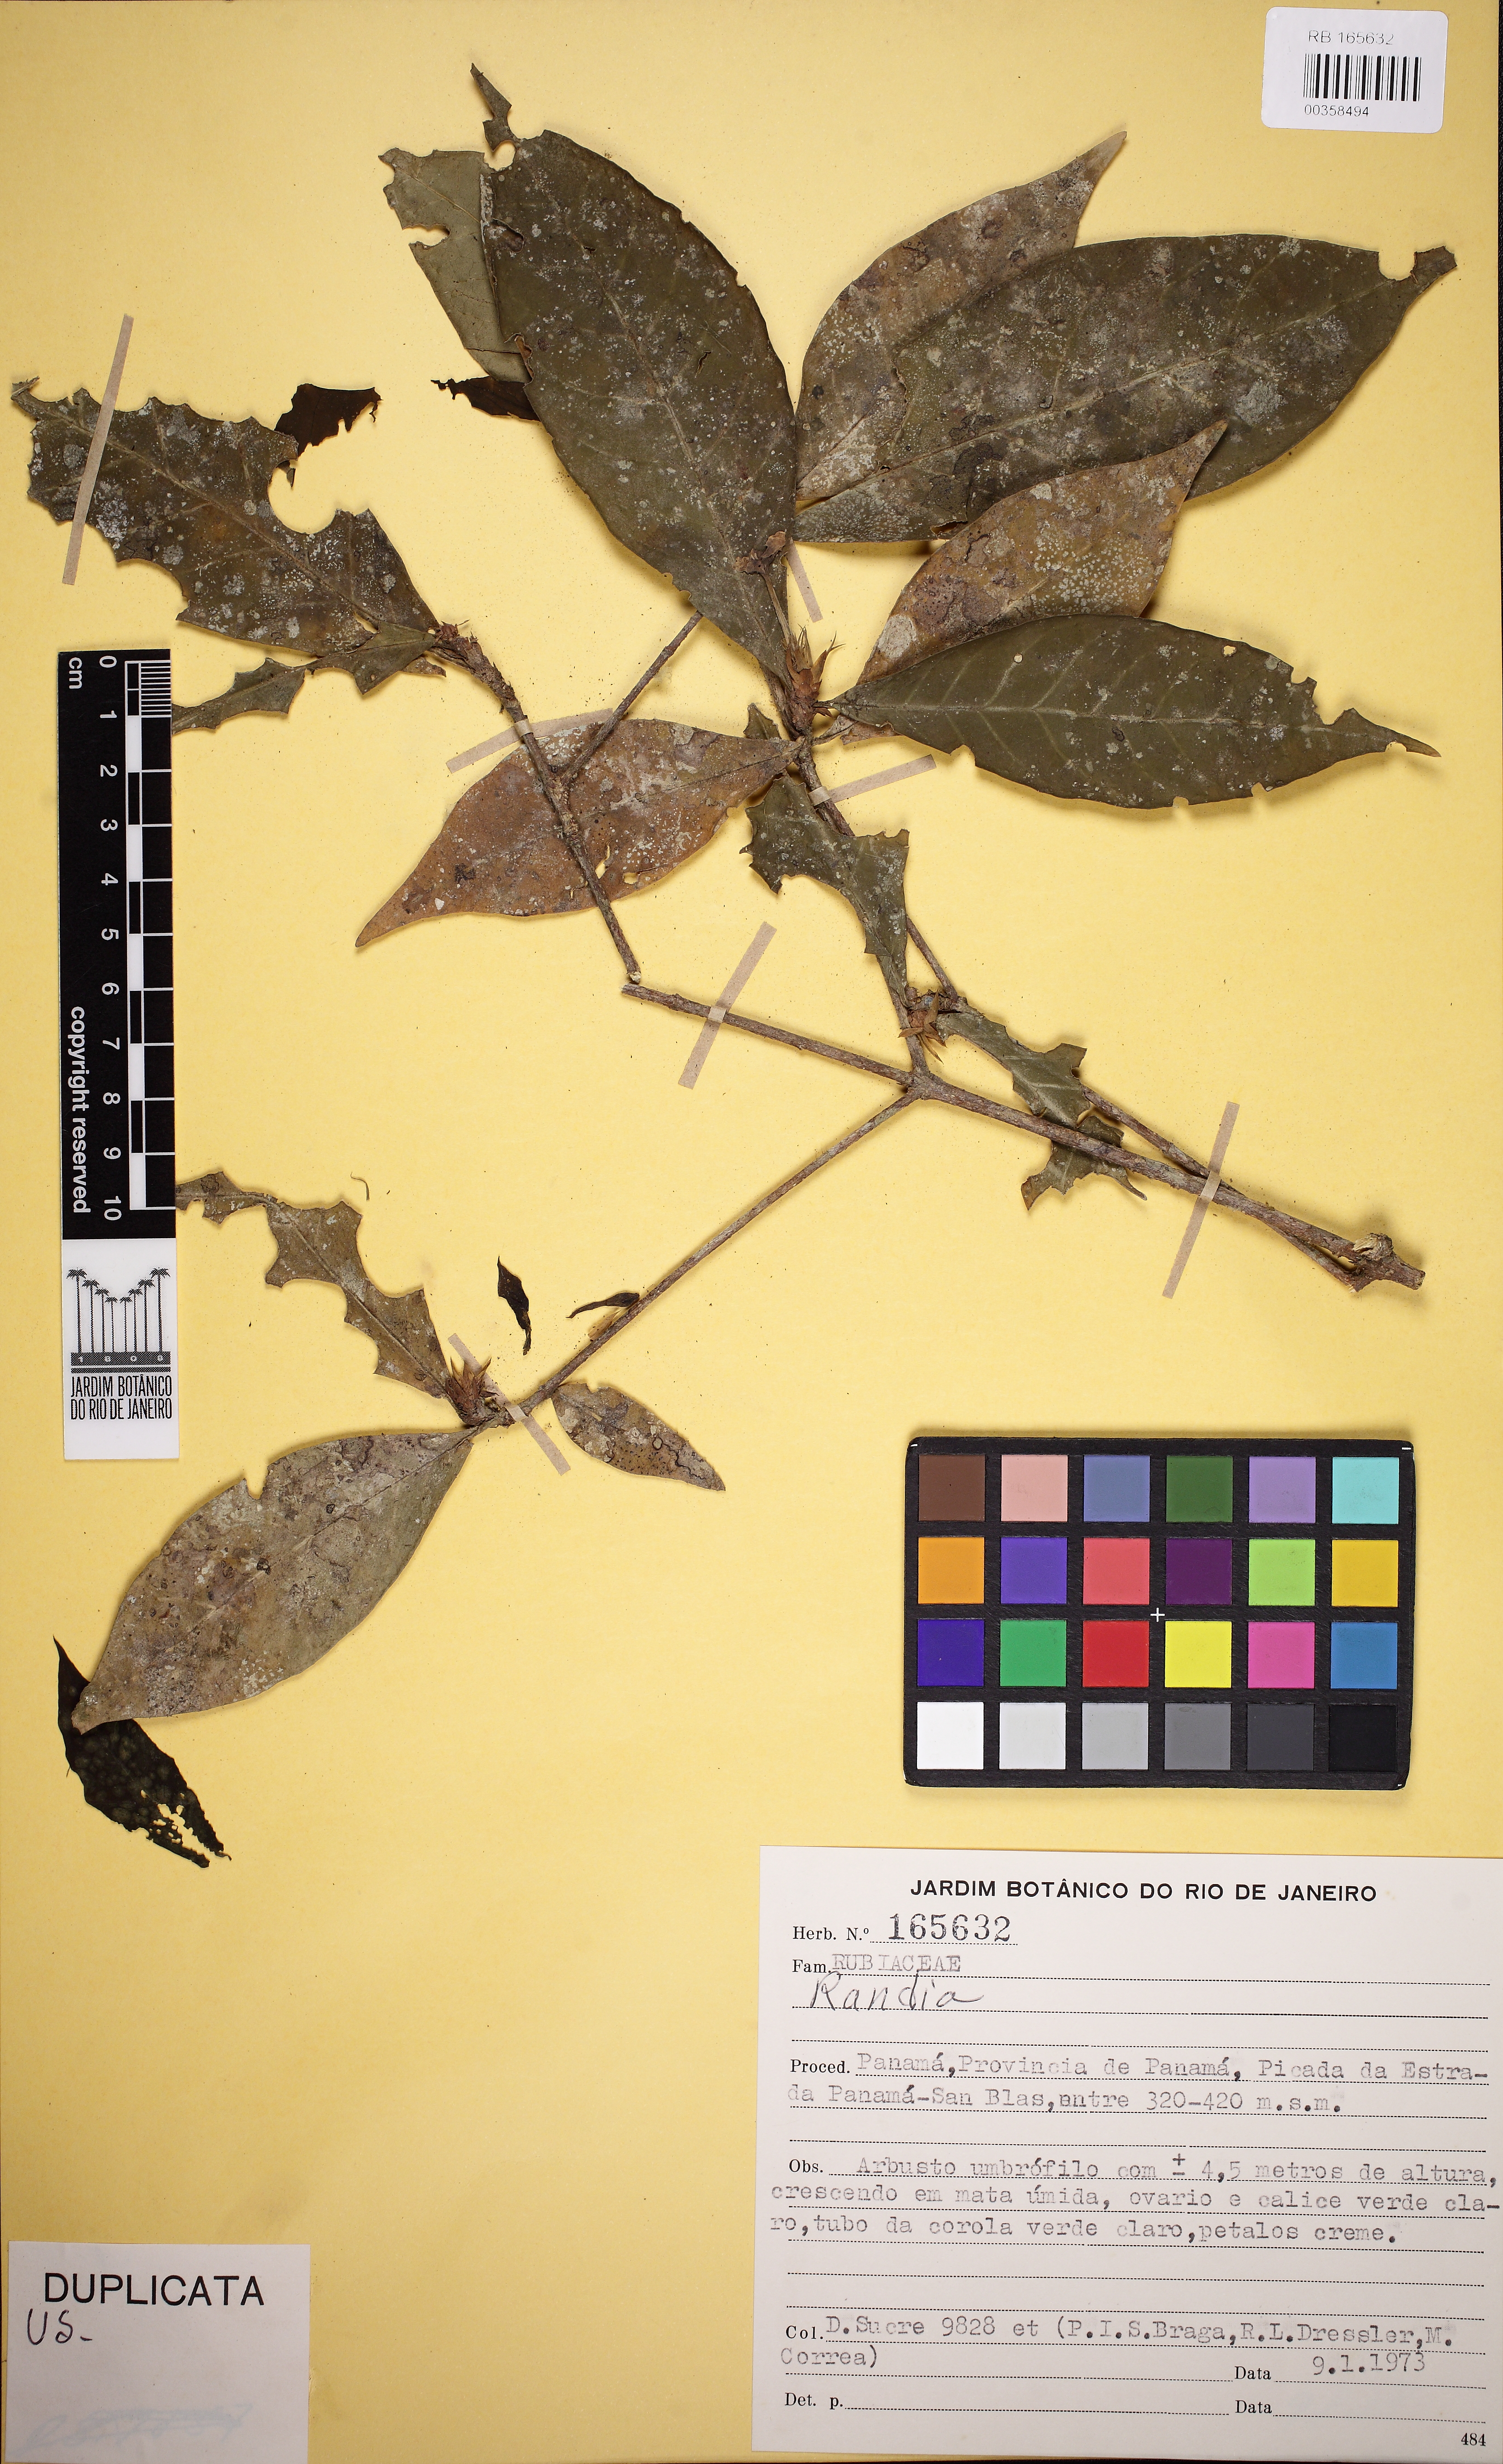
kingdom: Plantae
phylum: Tracheophyta
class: Magnoliopsida
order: Gentianales
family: Rubiaceae
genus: Randia
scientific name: Randia
